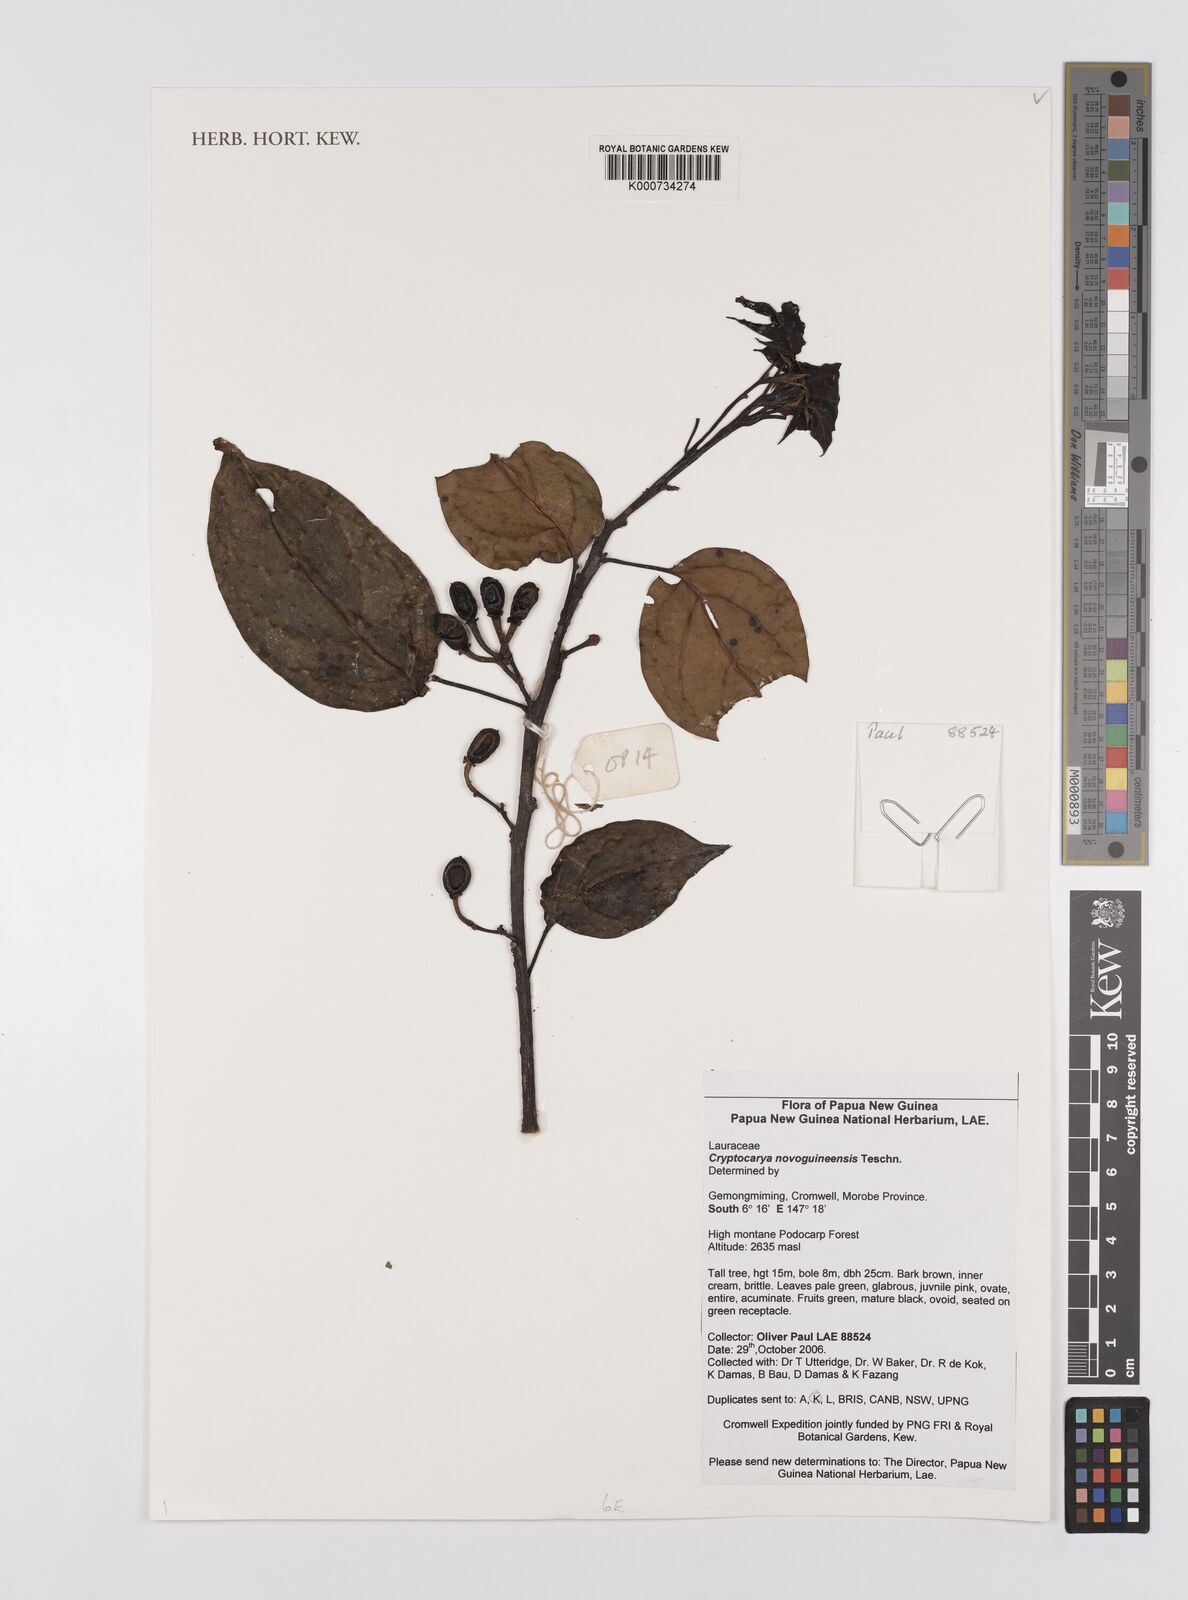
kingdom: Plantae
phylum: Tracheophyta
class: Magnoliopsida
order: Laurales
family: Lauraceae
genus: Cryptocarya
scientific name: Cryptocarya
